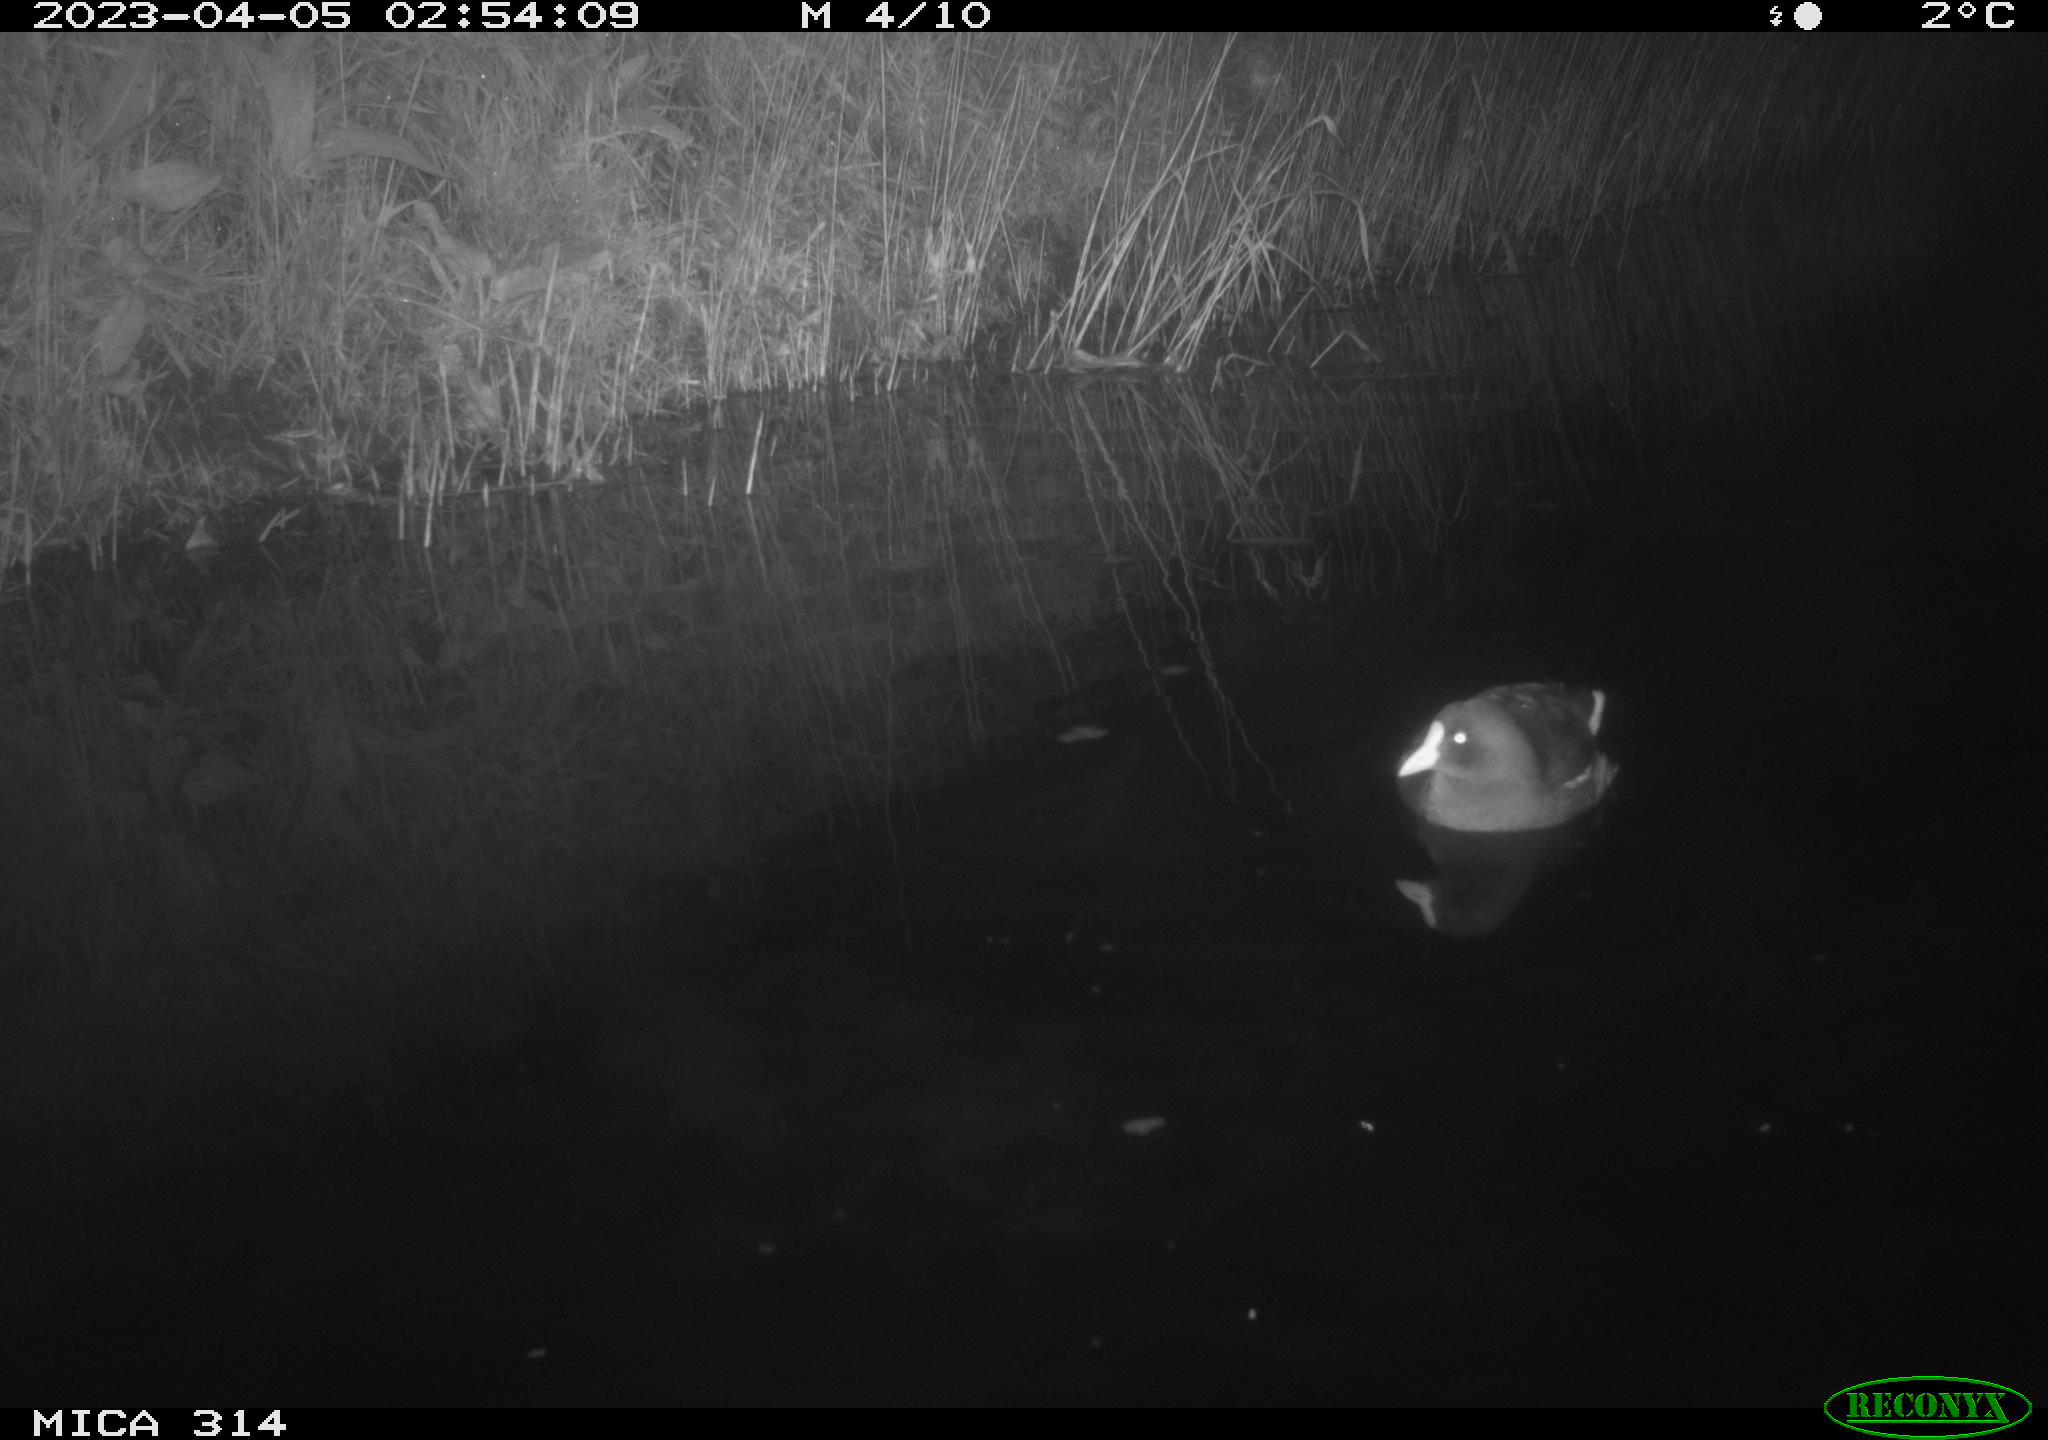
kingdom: Animalia
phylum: Chordata
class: Aves
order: Gruiformes
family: Rallidae
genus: Gallinula
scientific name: Gallinula chloropus
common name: Common moorhen
